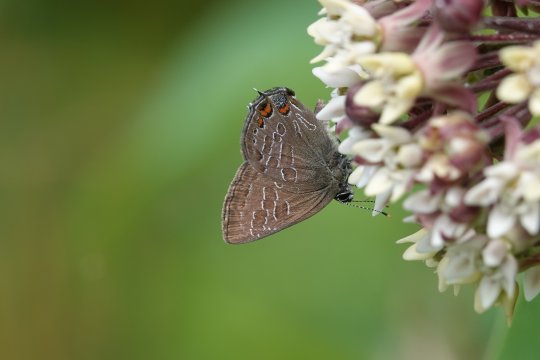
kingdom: Animalia
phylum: Arthropoda
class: Insecta
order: Lepidoptera
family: Lycaenidae
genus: Satyrium
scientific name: Satyrium liparops
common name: Striped Hairstreak
